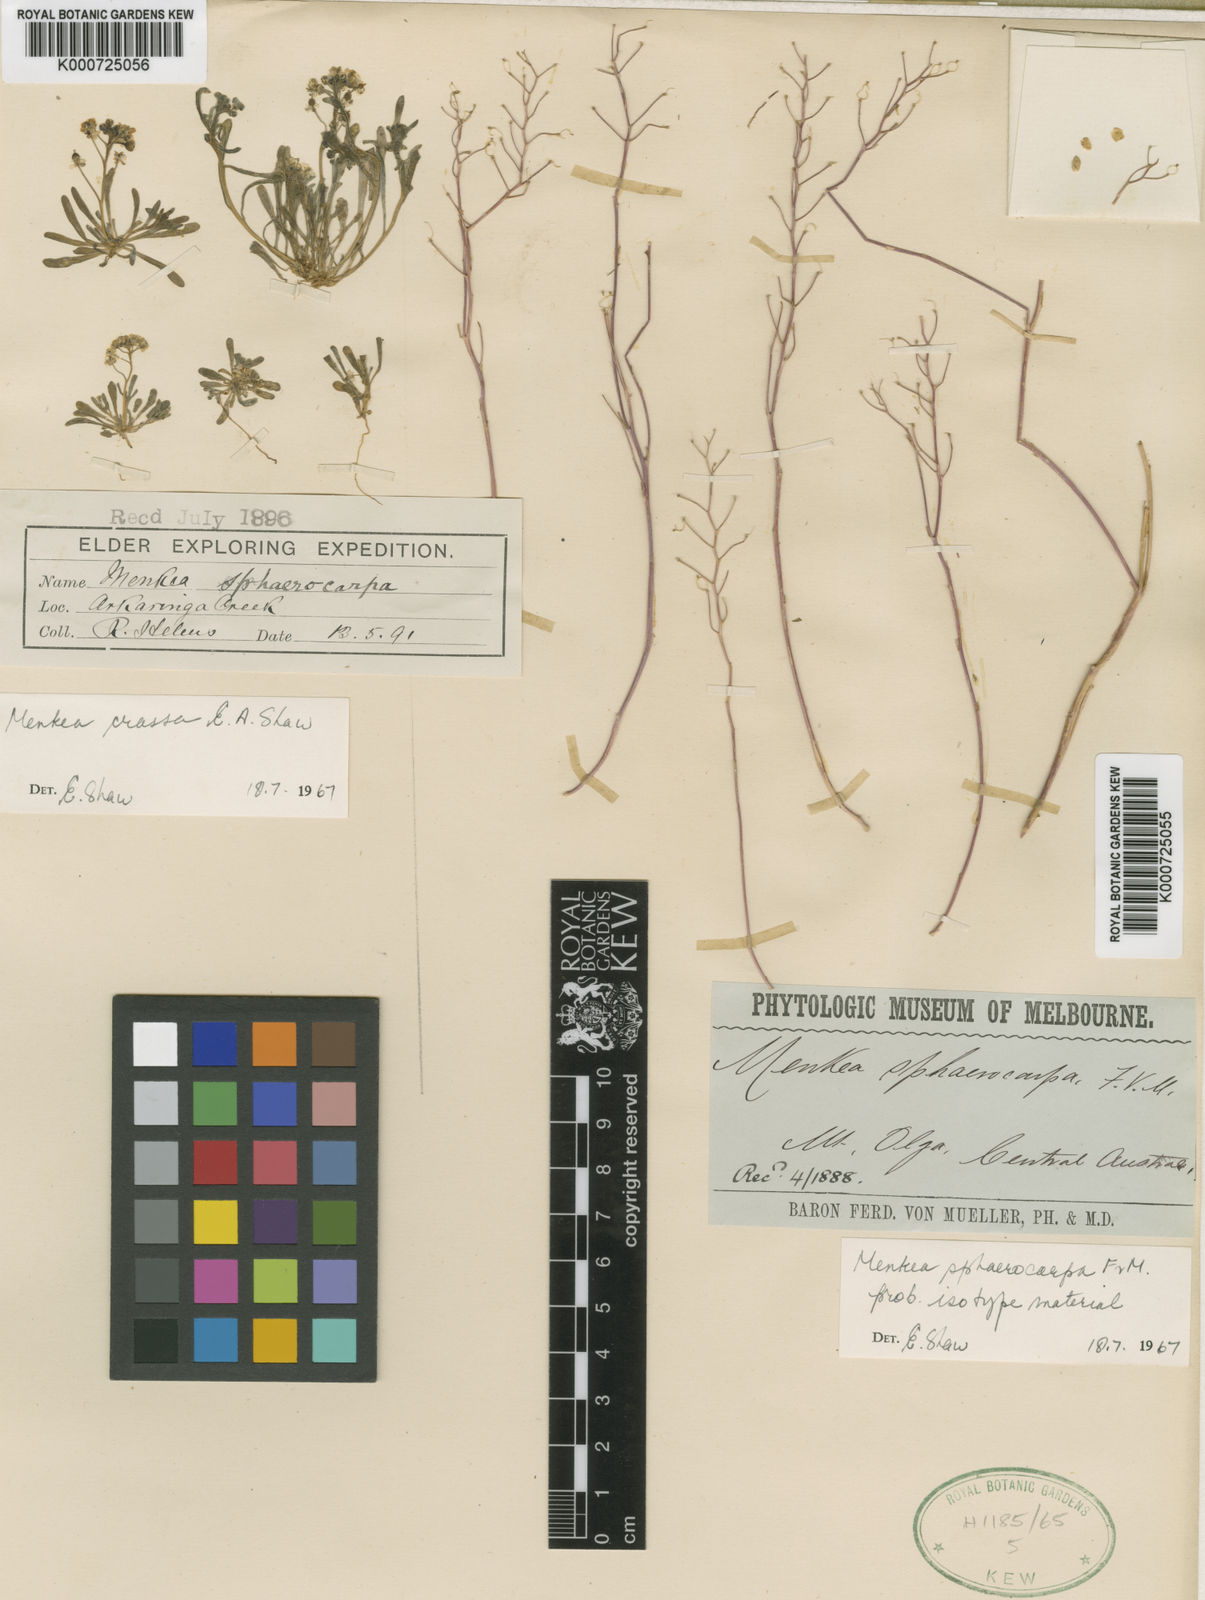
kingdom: Plantae
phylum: Tracheophyta
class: Magnoliopsida
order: Brassicales
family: Brassicaceae
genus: Menkea
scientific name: Menkea
